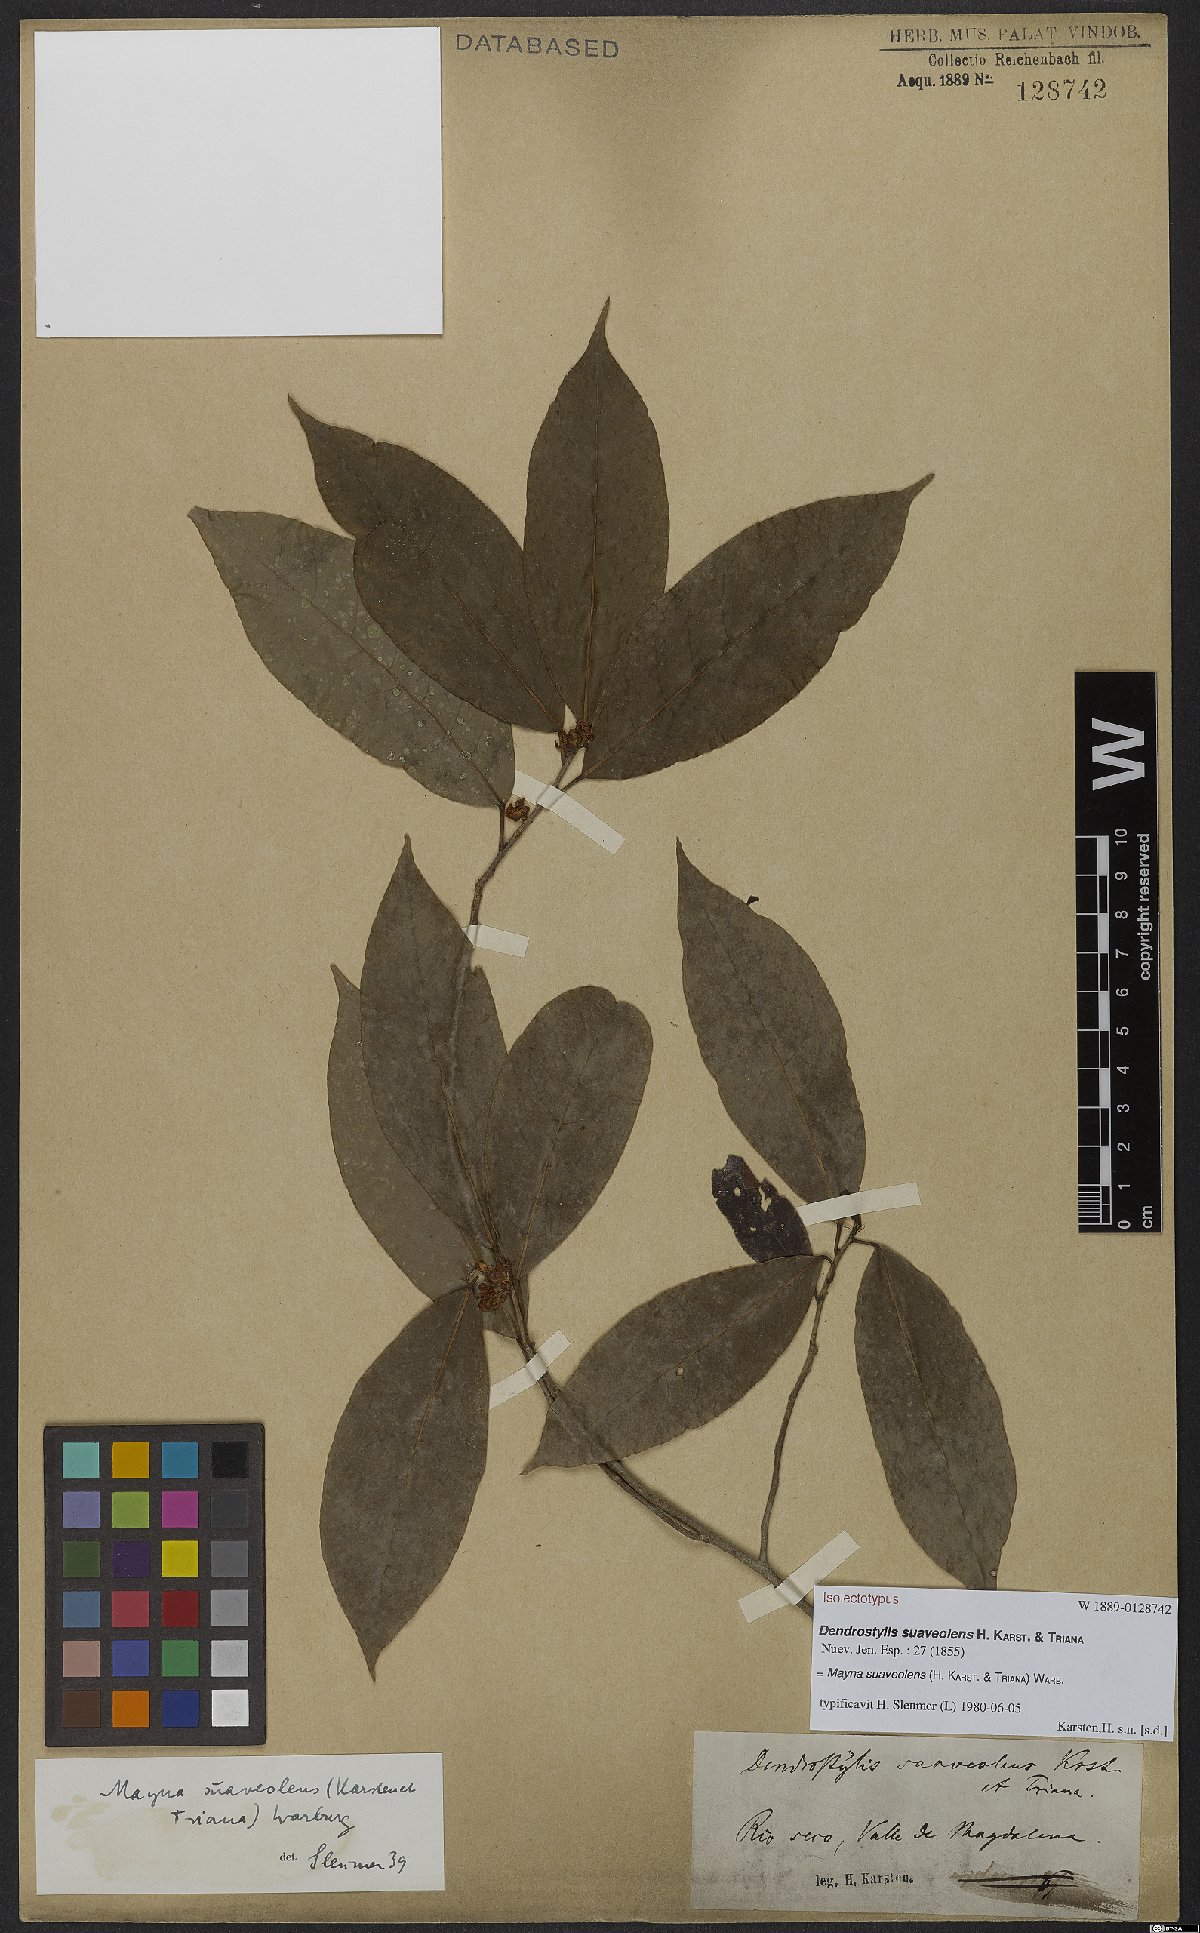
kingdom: Plantae
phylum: Tracheophyta
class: Magnoliopsida
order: Malpighiales
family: Achariaceae
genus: Mayna
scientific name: Mayna suaveolens
